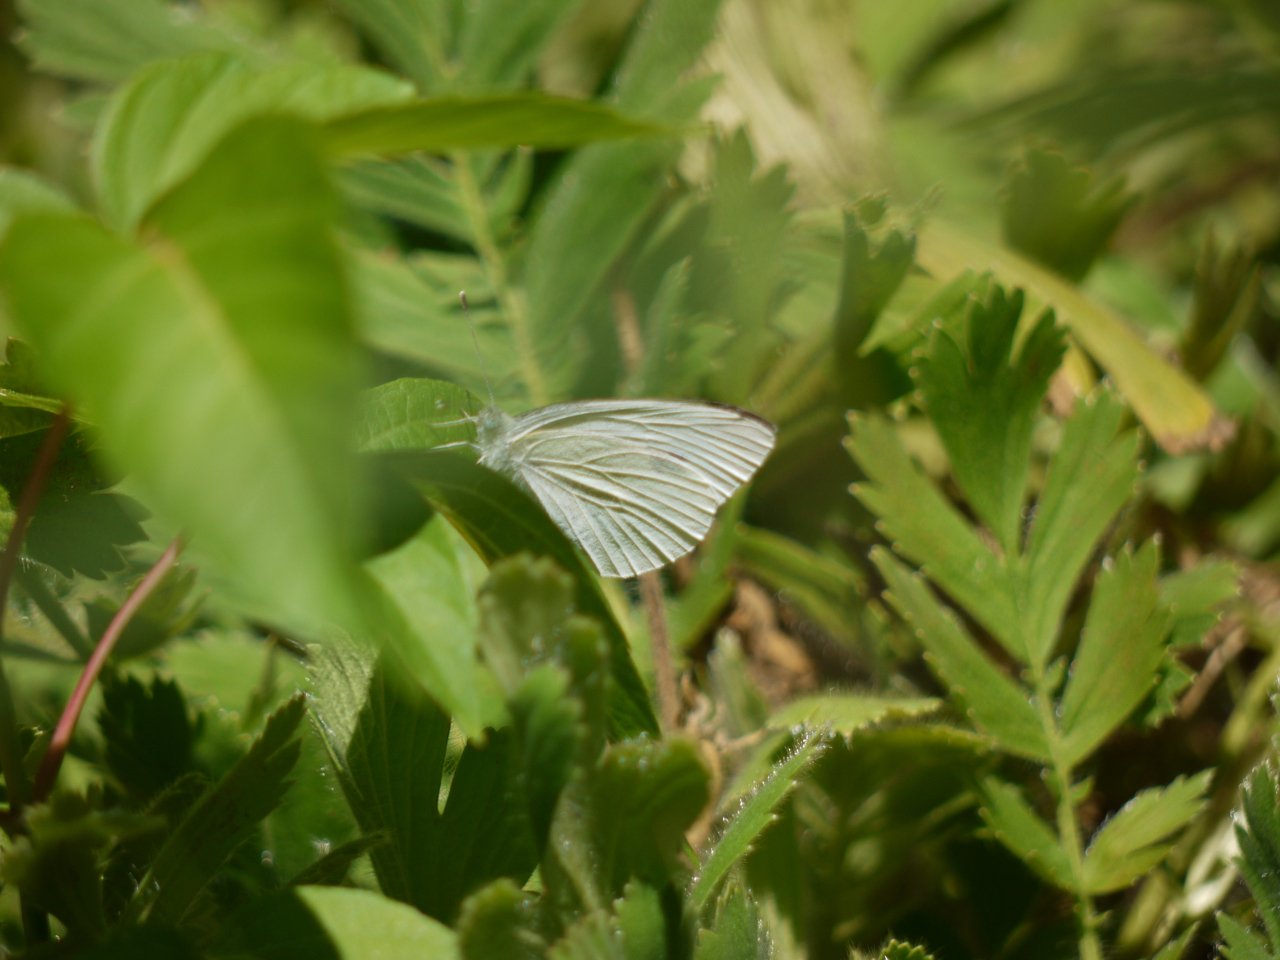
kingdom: Animalia
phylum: Arthropoda
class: Insecta
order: Lepidoptera
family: Pieridae
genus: Pieris
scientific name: Pieris rapae
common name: Cabbage White
